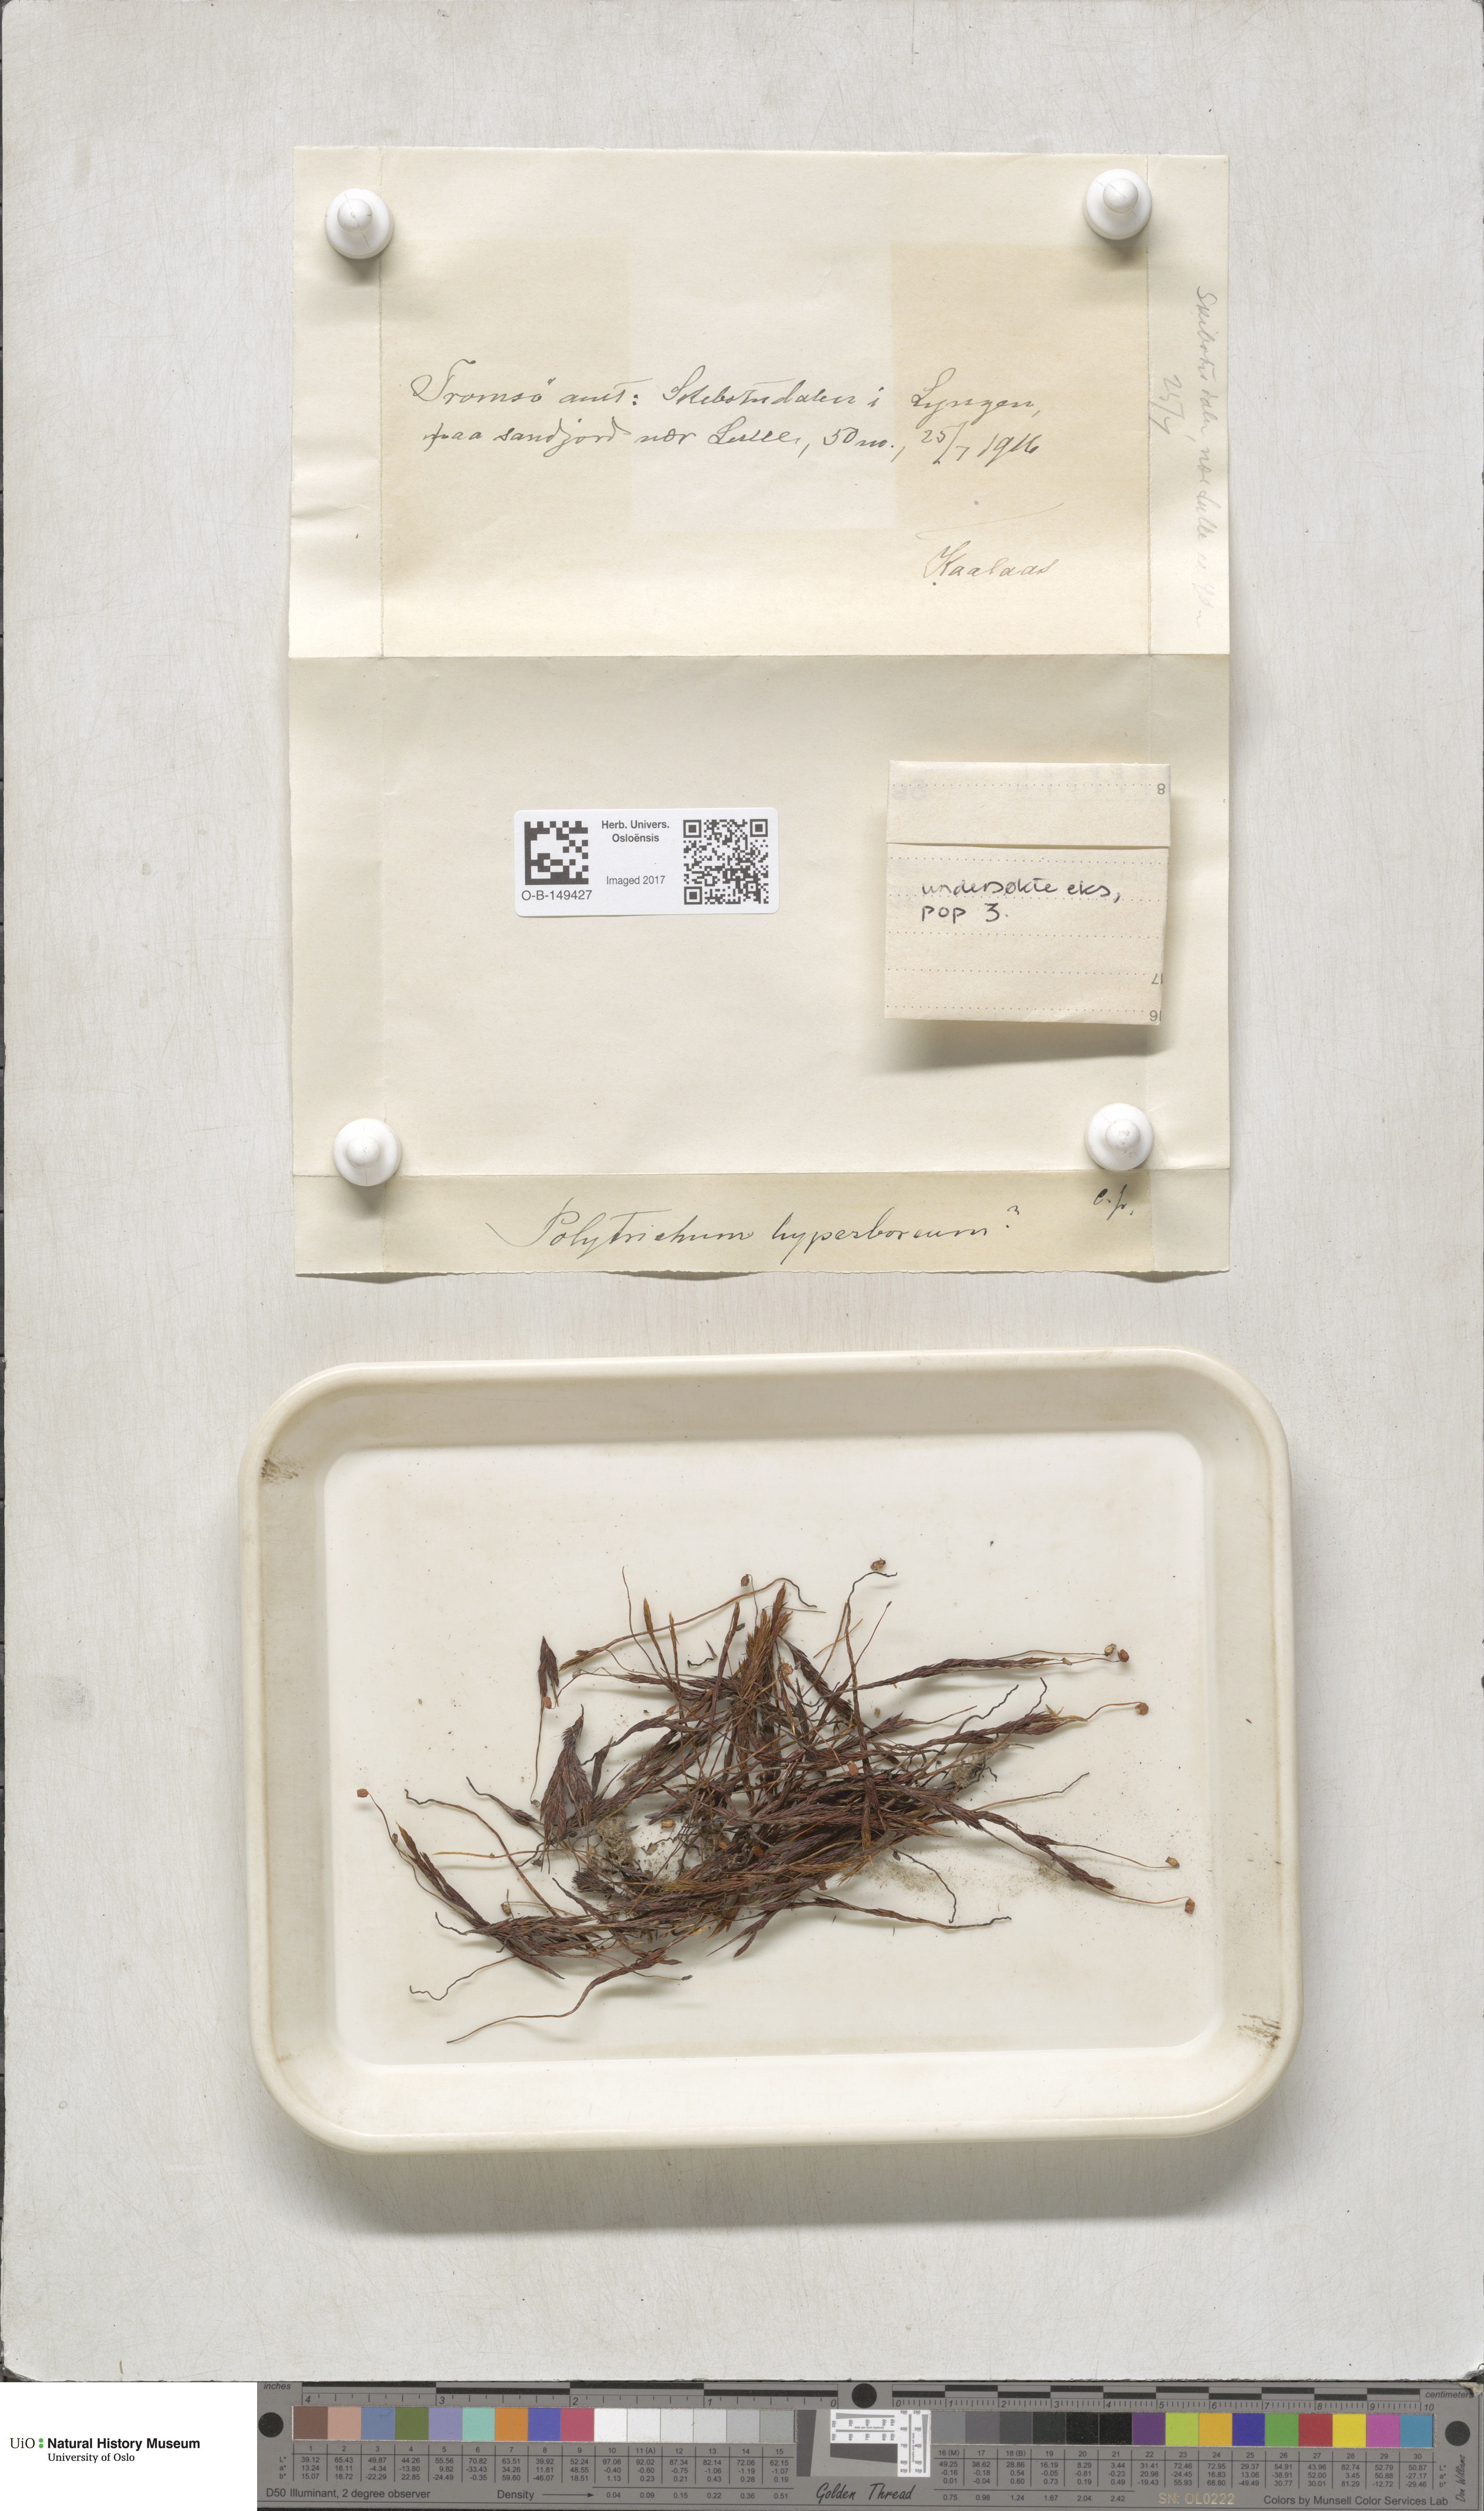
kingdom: Plantae
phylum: Bryophyta
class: Polytrichopsida
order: Polytrichales
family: Polytrichaceae
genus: Polytrichum
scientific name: Polytrichum hyperboreum
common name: Hyperboreal haircap moss
